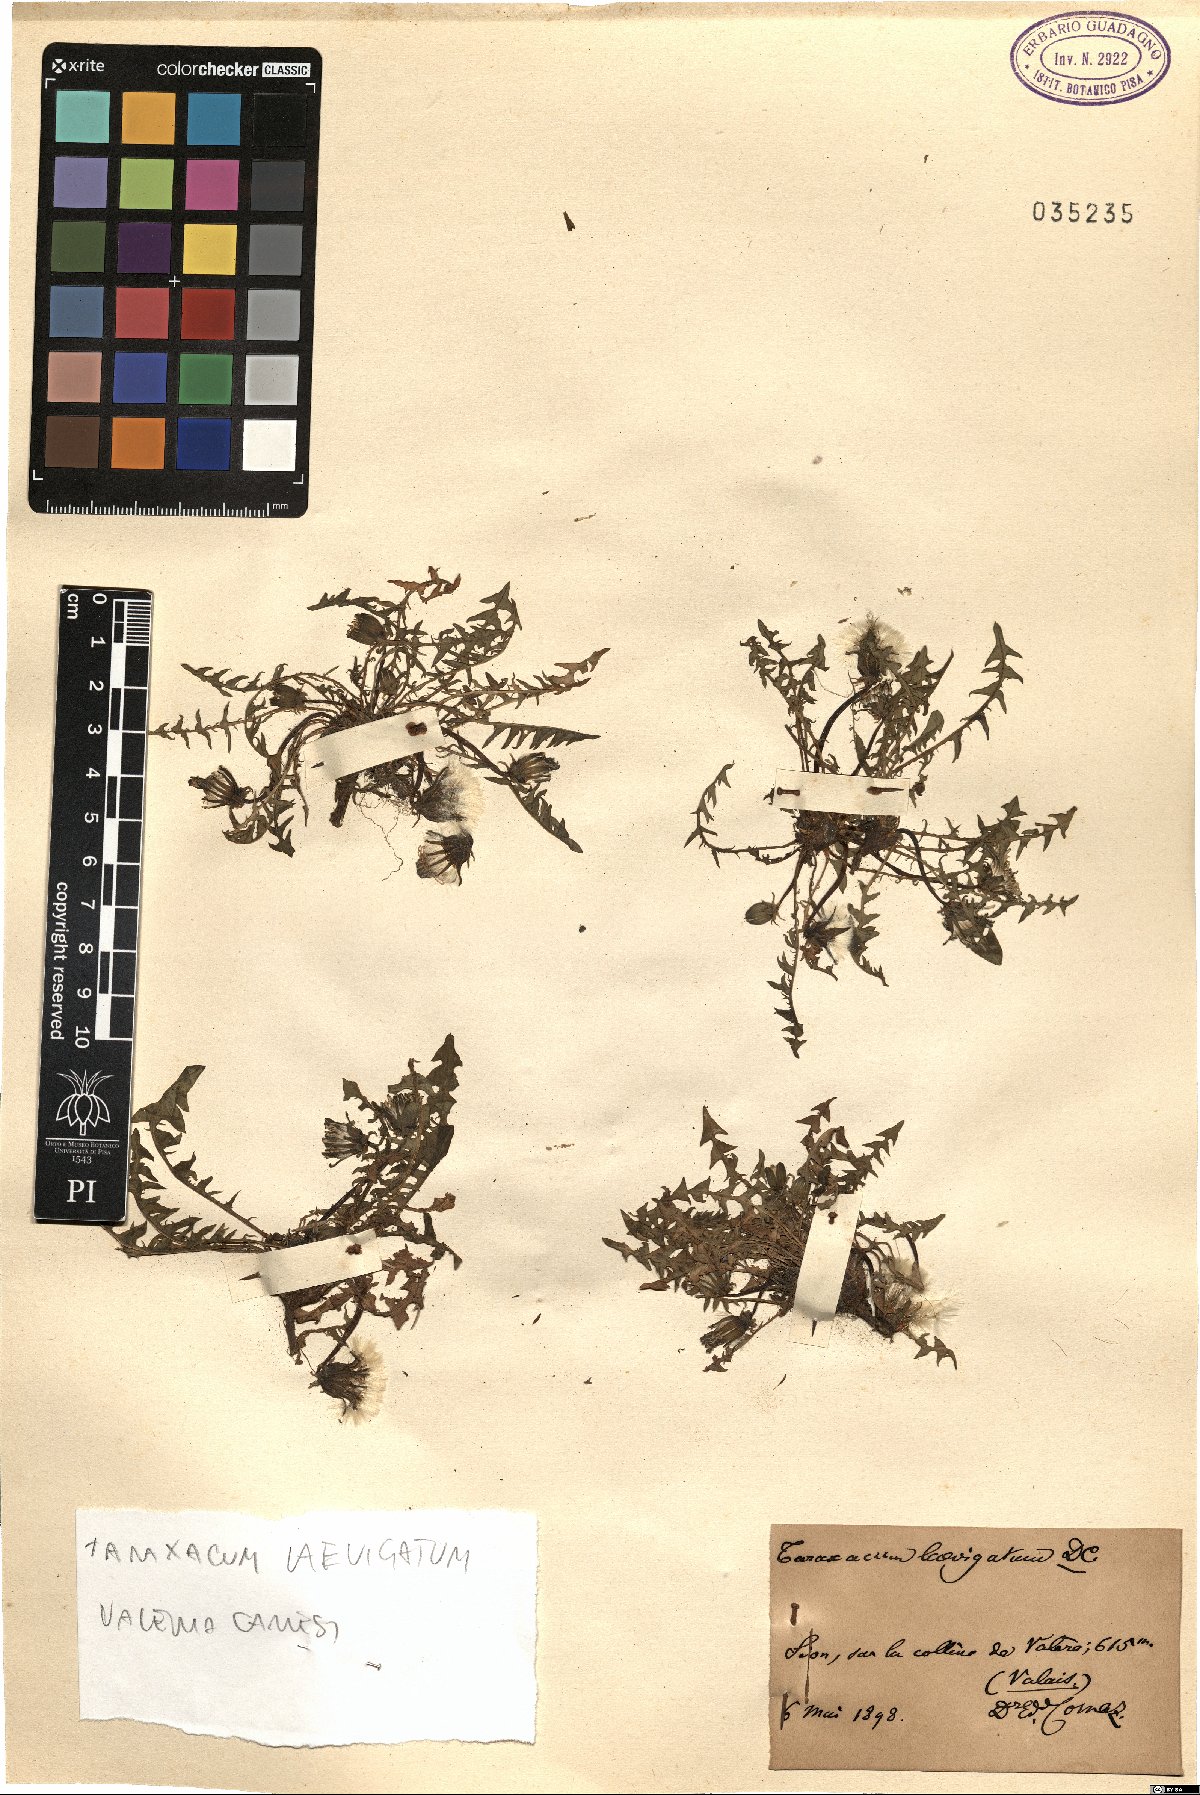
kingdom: Plantae
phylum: Tracheophyta
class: Magnoliopsida
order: Asterales
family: Asteraceae
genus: Taraxacum
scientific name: Taraxacum erythrospermum
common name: Rock dandelion
